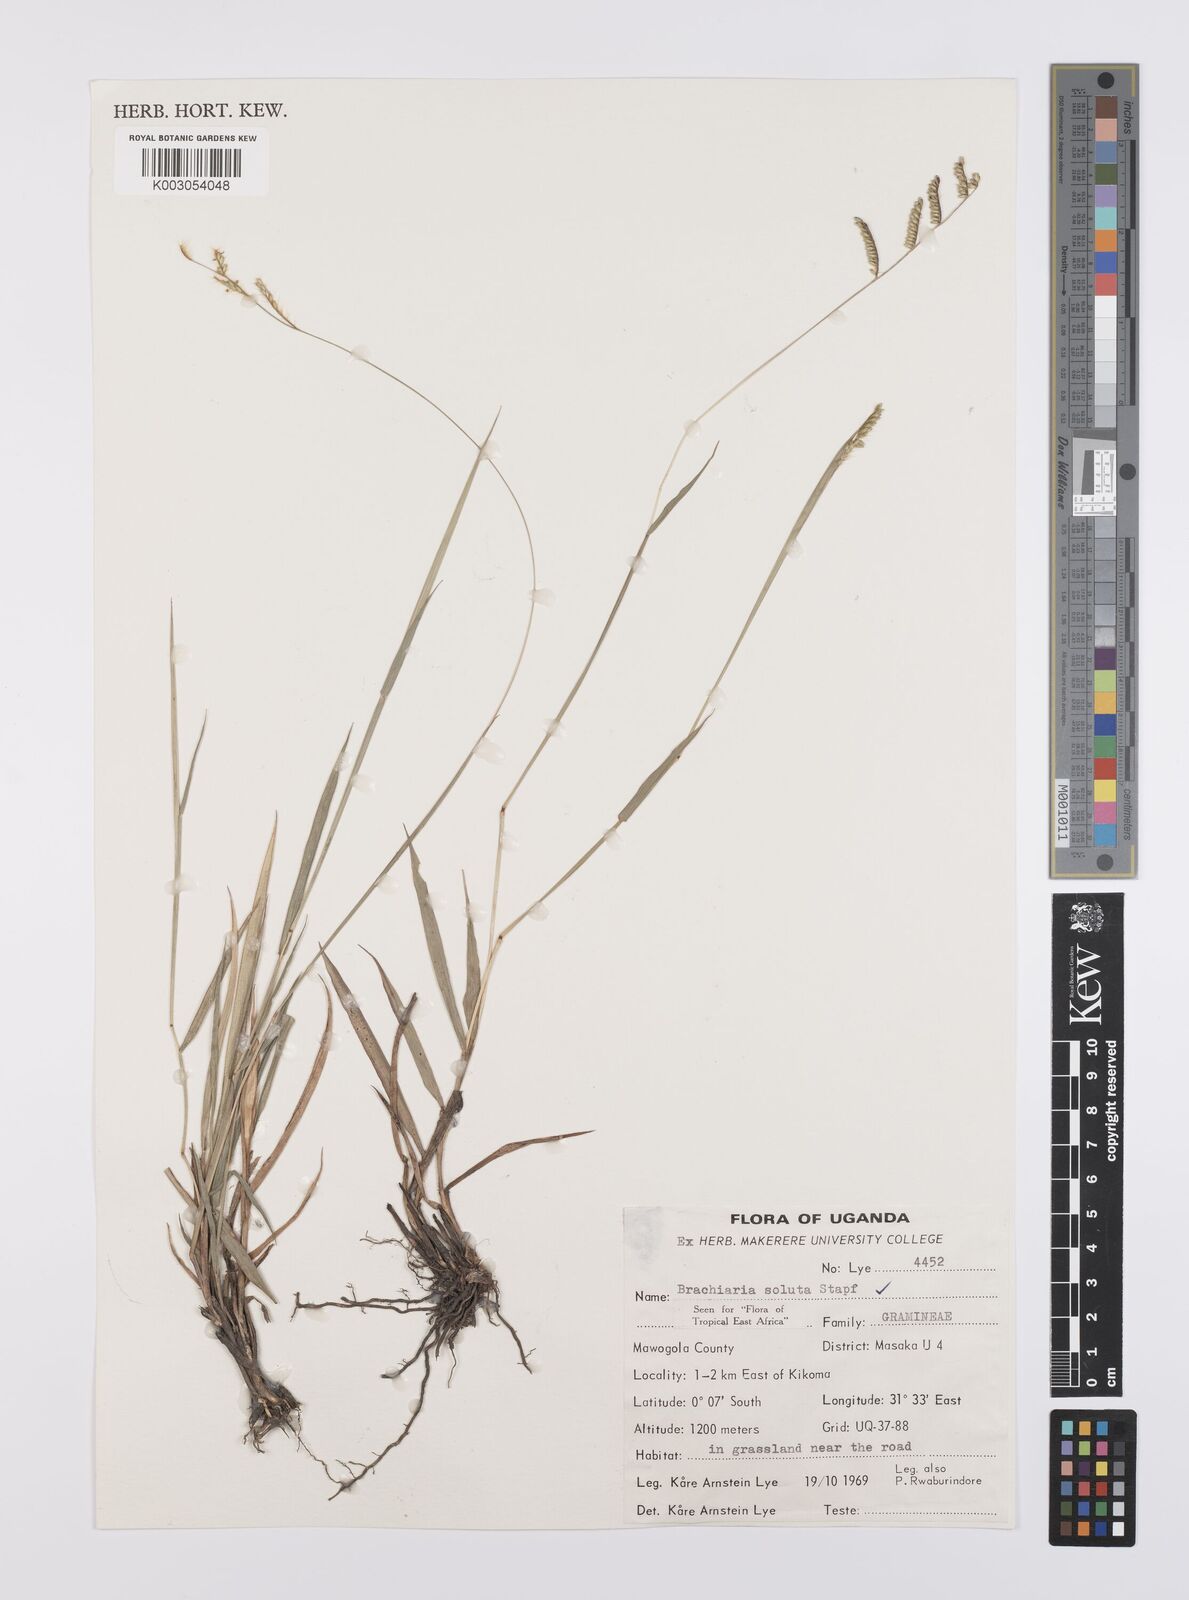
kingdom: Plantae
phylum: Tracheophyta
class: Liliopsida
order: Poales
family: Poaceae
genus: Urochloa
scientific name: Urochloa jubata
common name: Buffalograss
